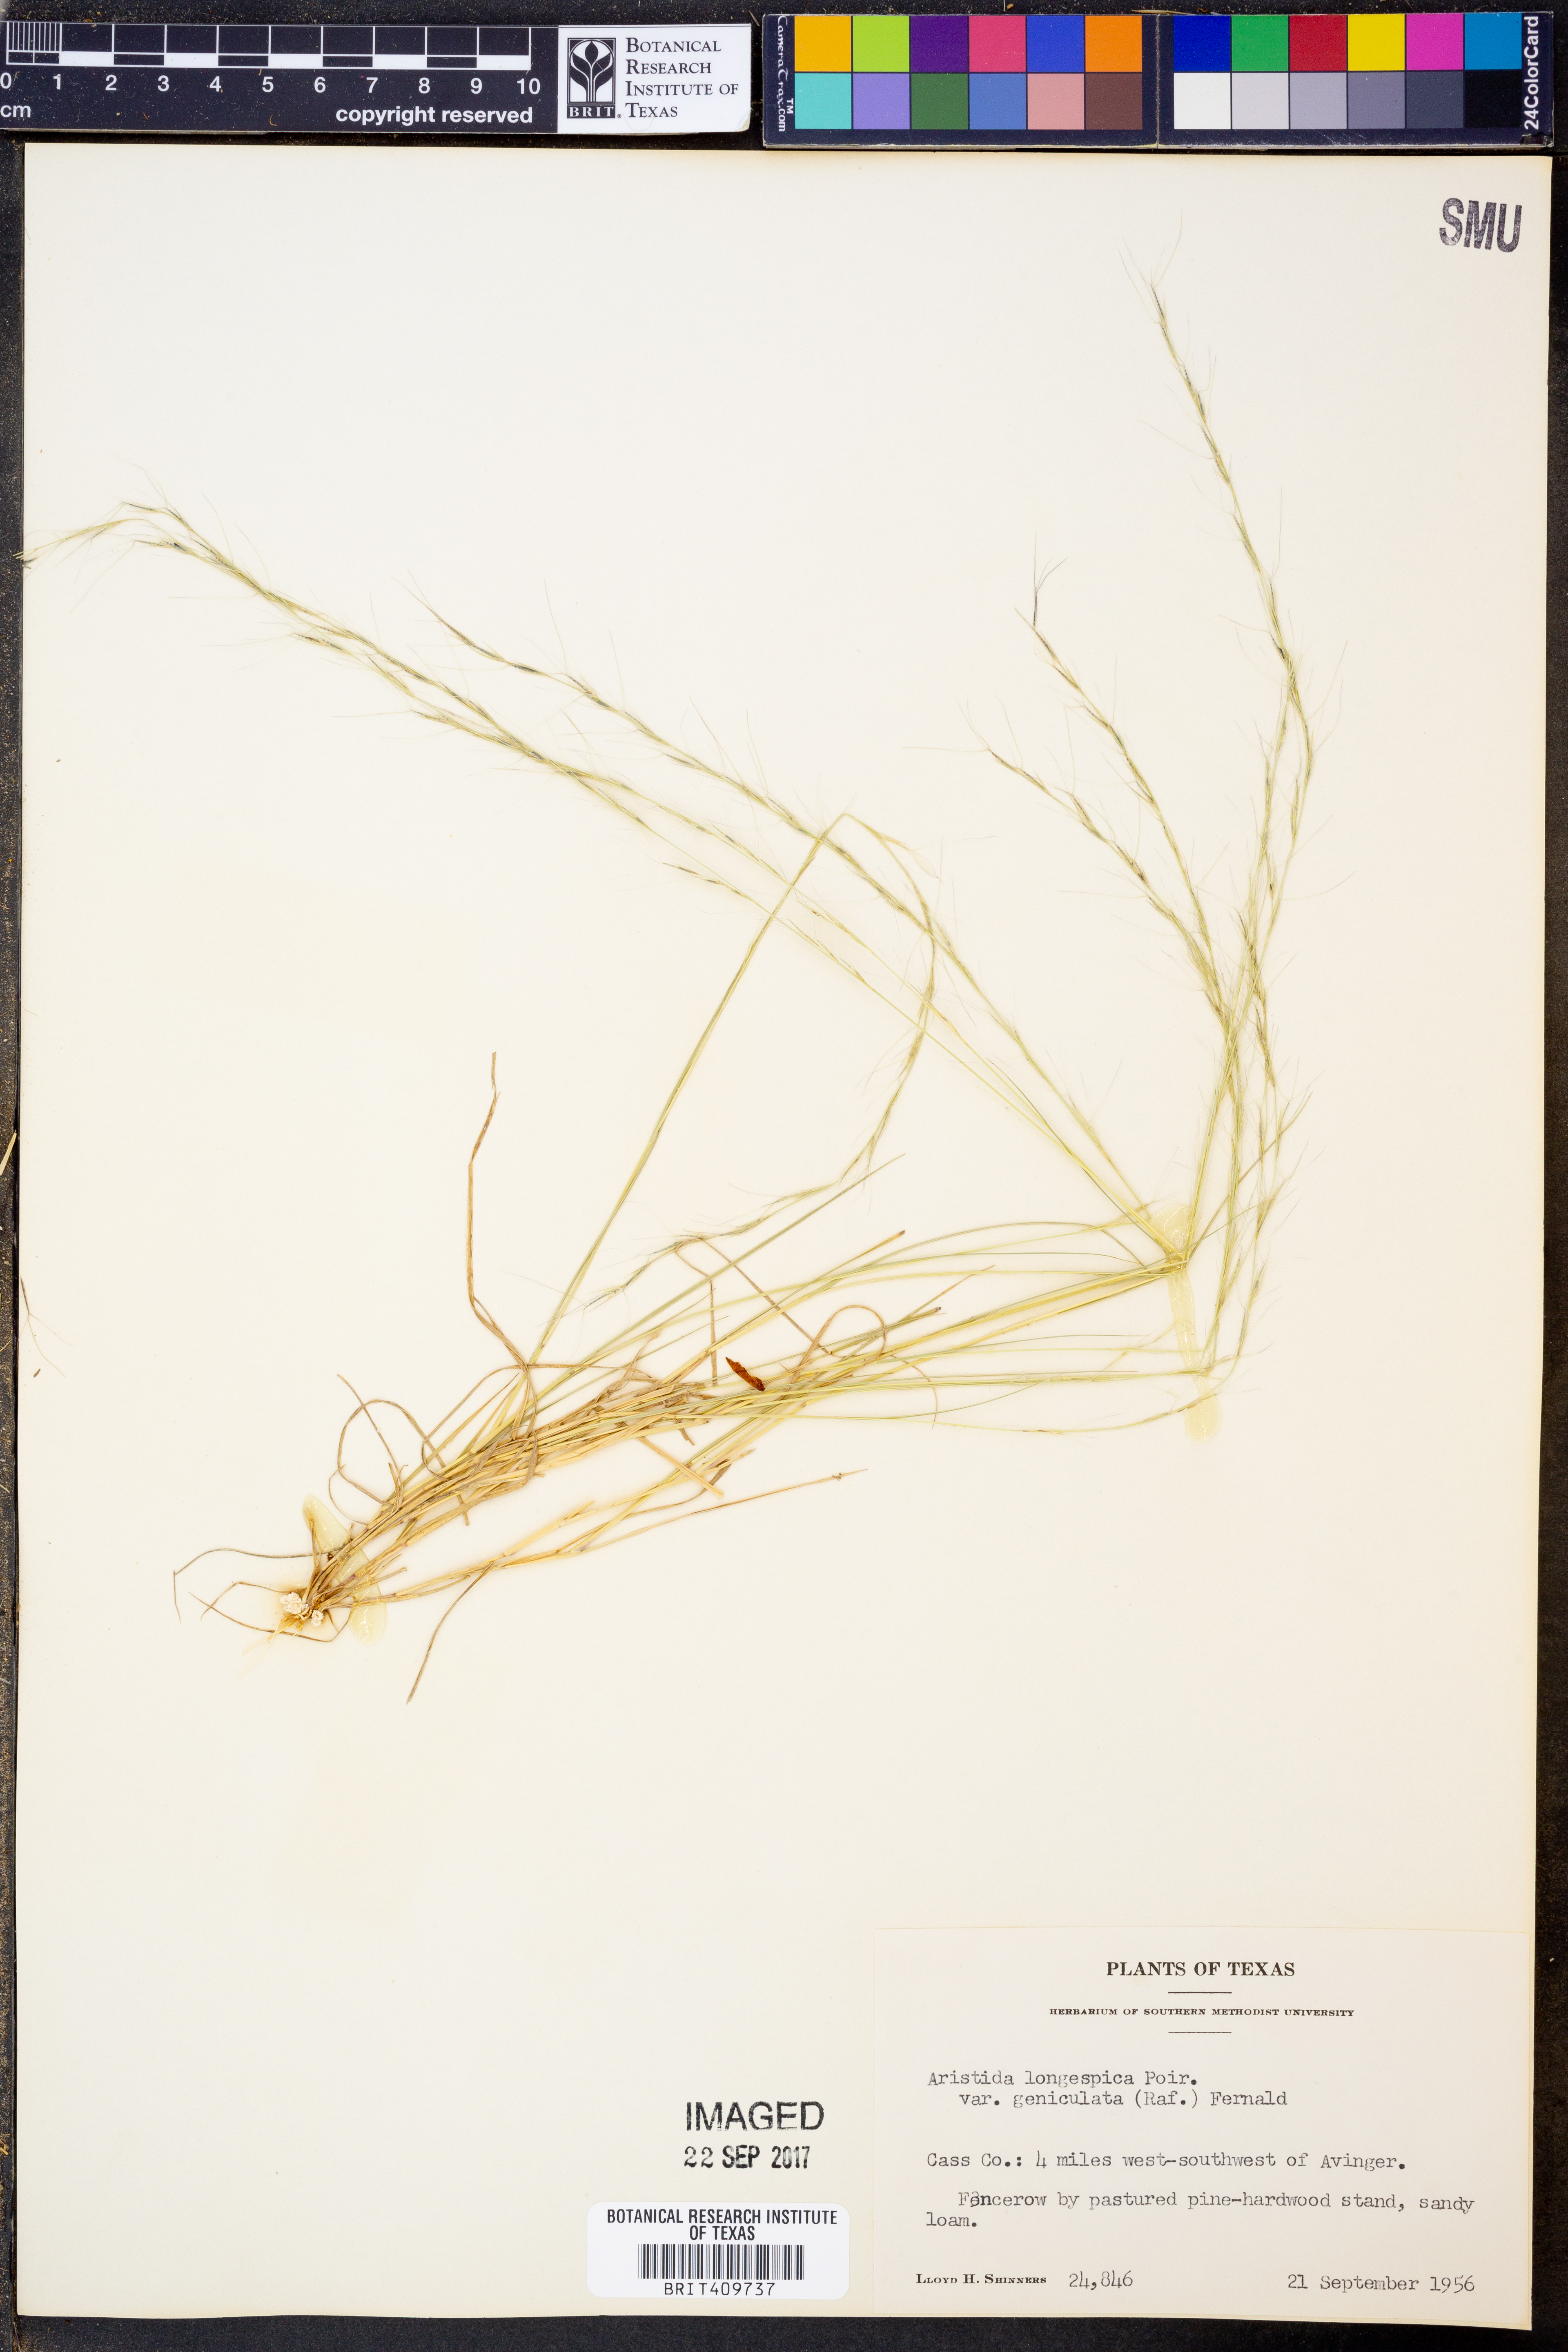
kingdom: Plantae
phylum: Tracheophyta
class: Liliopsida
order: Poales
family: Poaceae
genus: Aristida
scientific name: Aristida longespica
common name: Long-spiked triple-awned grass
